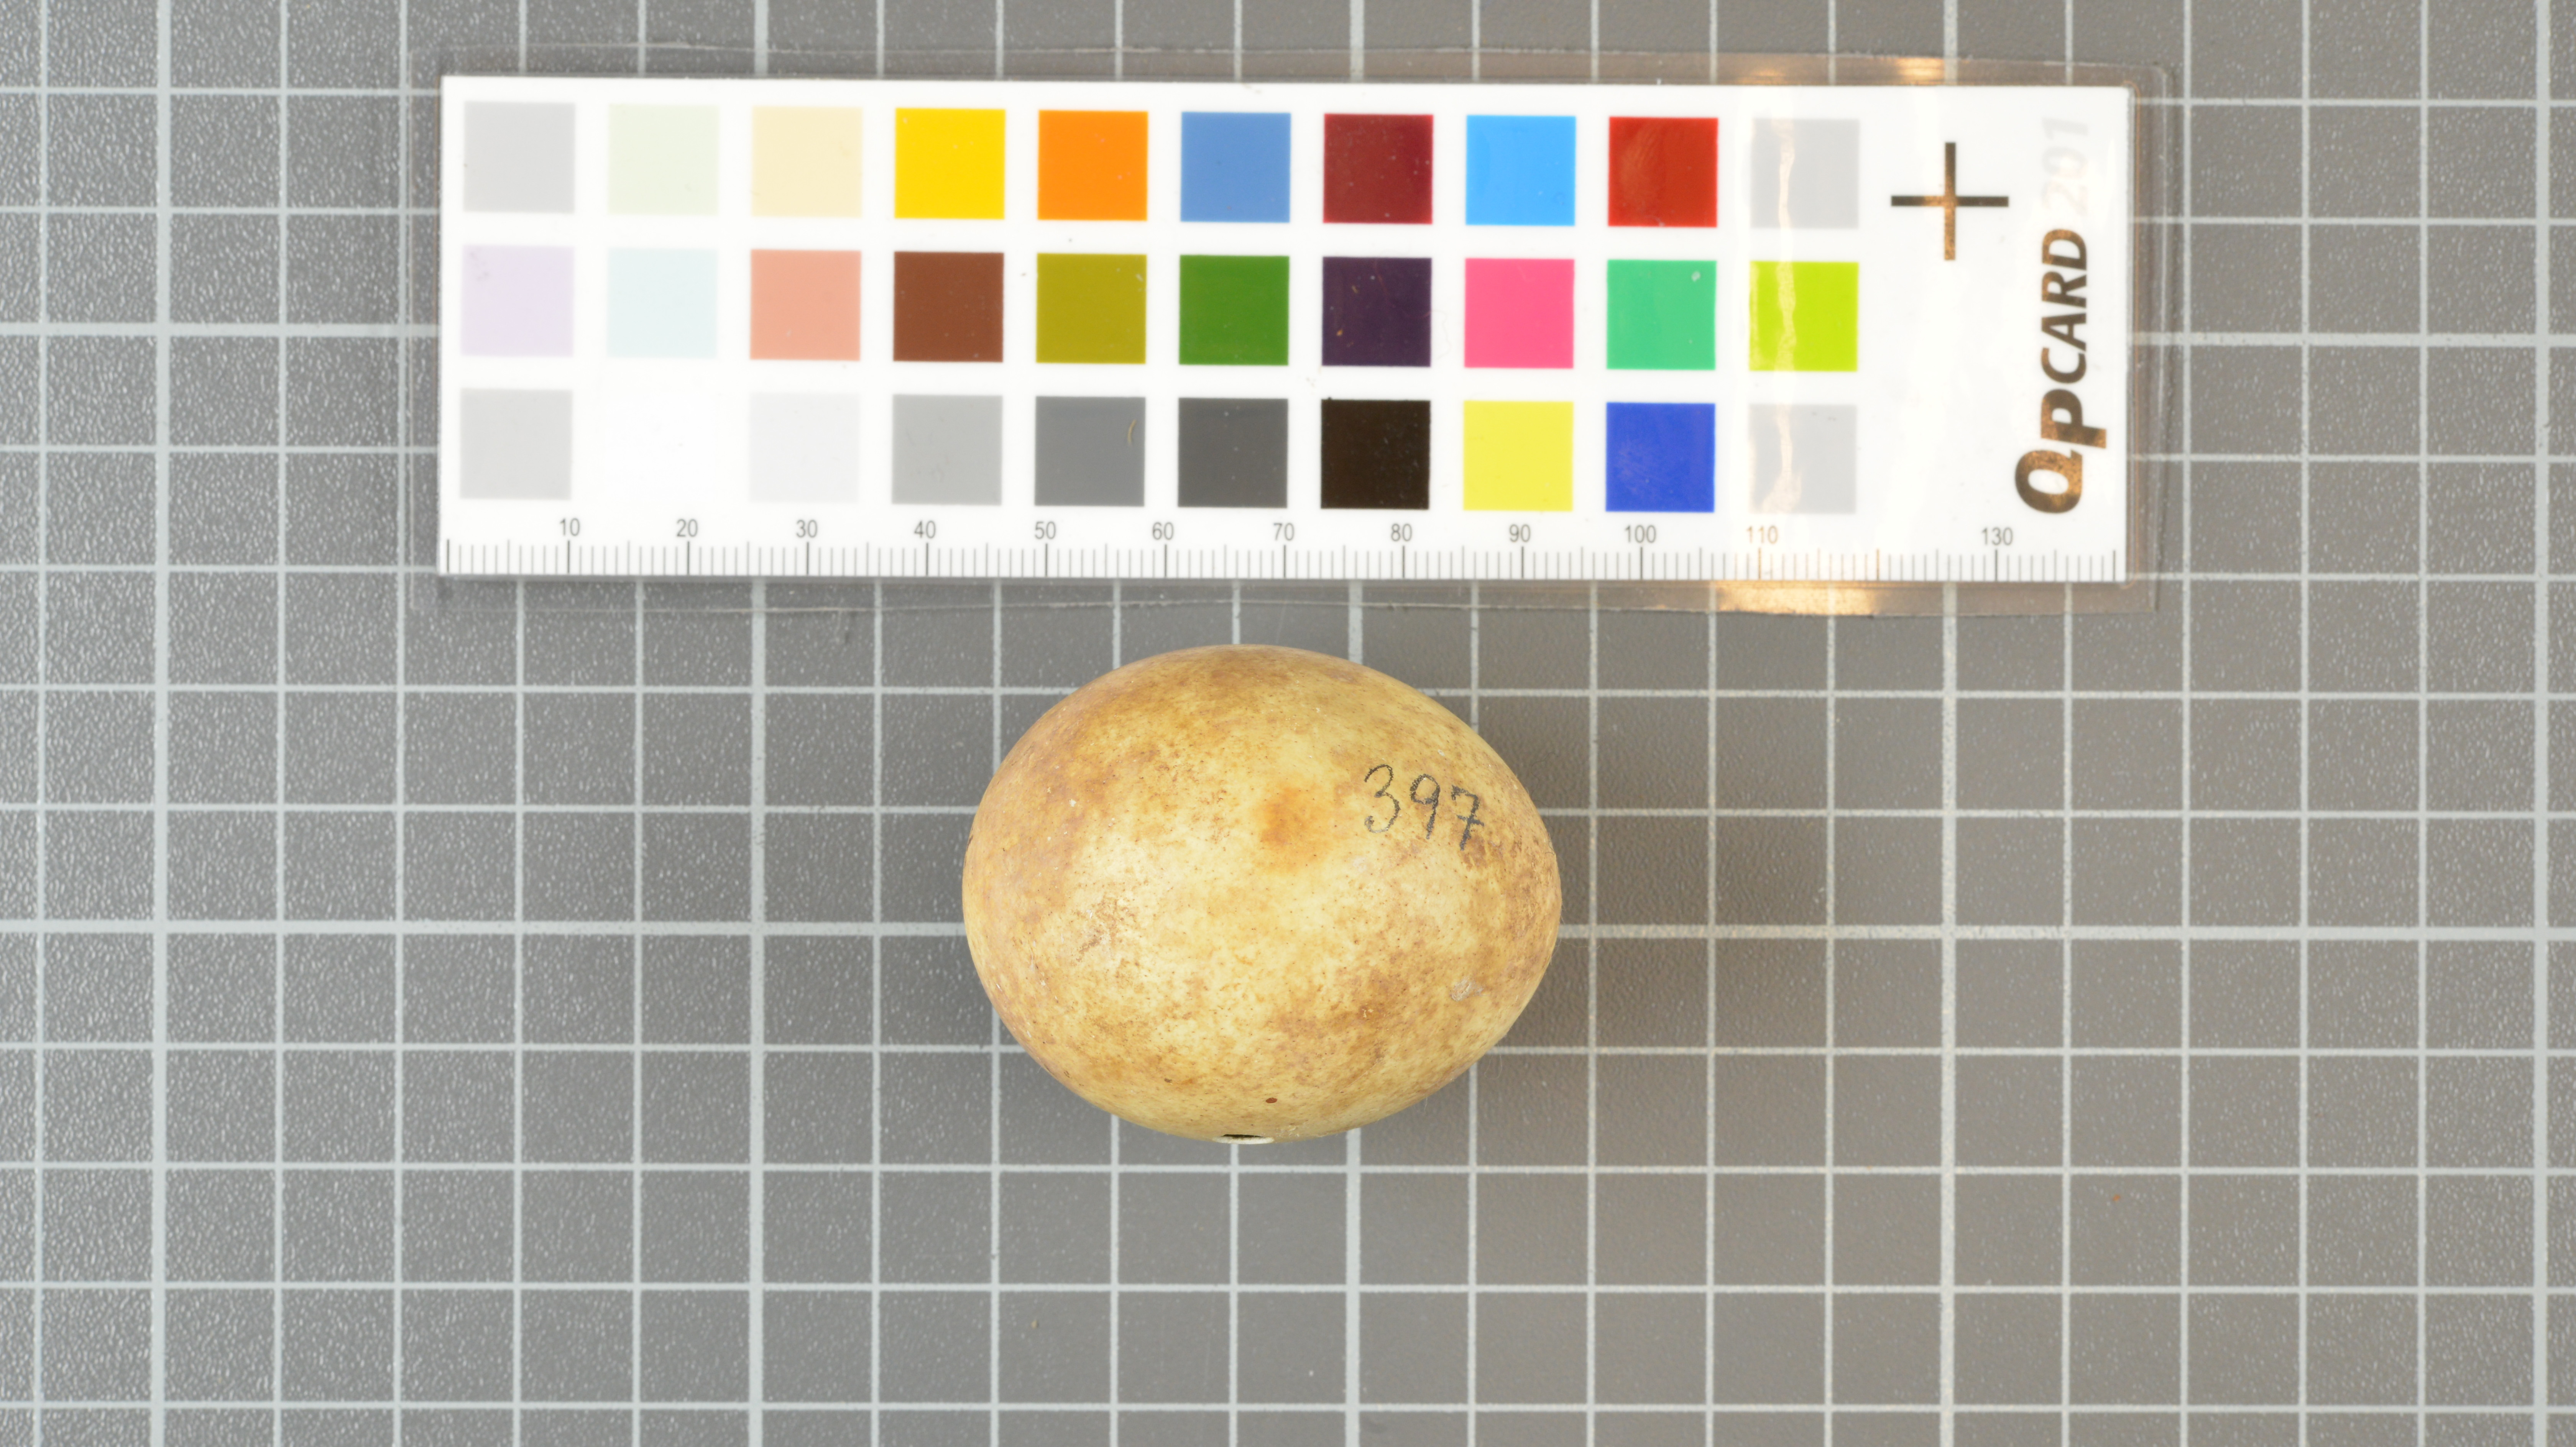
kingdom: Animalia
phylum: Chordata
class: Aves
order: Sphenisciformes
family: Spheniscidae
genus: Eudyptes
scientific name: Eudyptes moseleyi
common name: Northern rockhopper penguin
